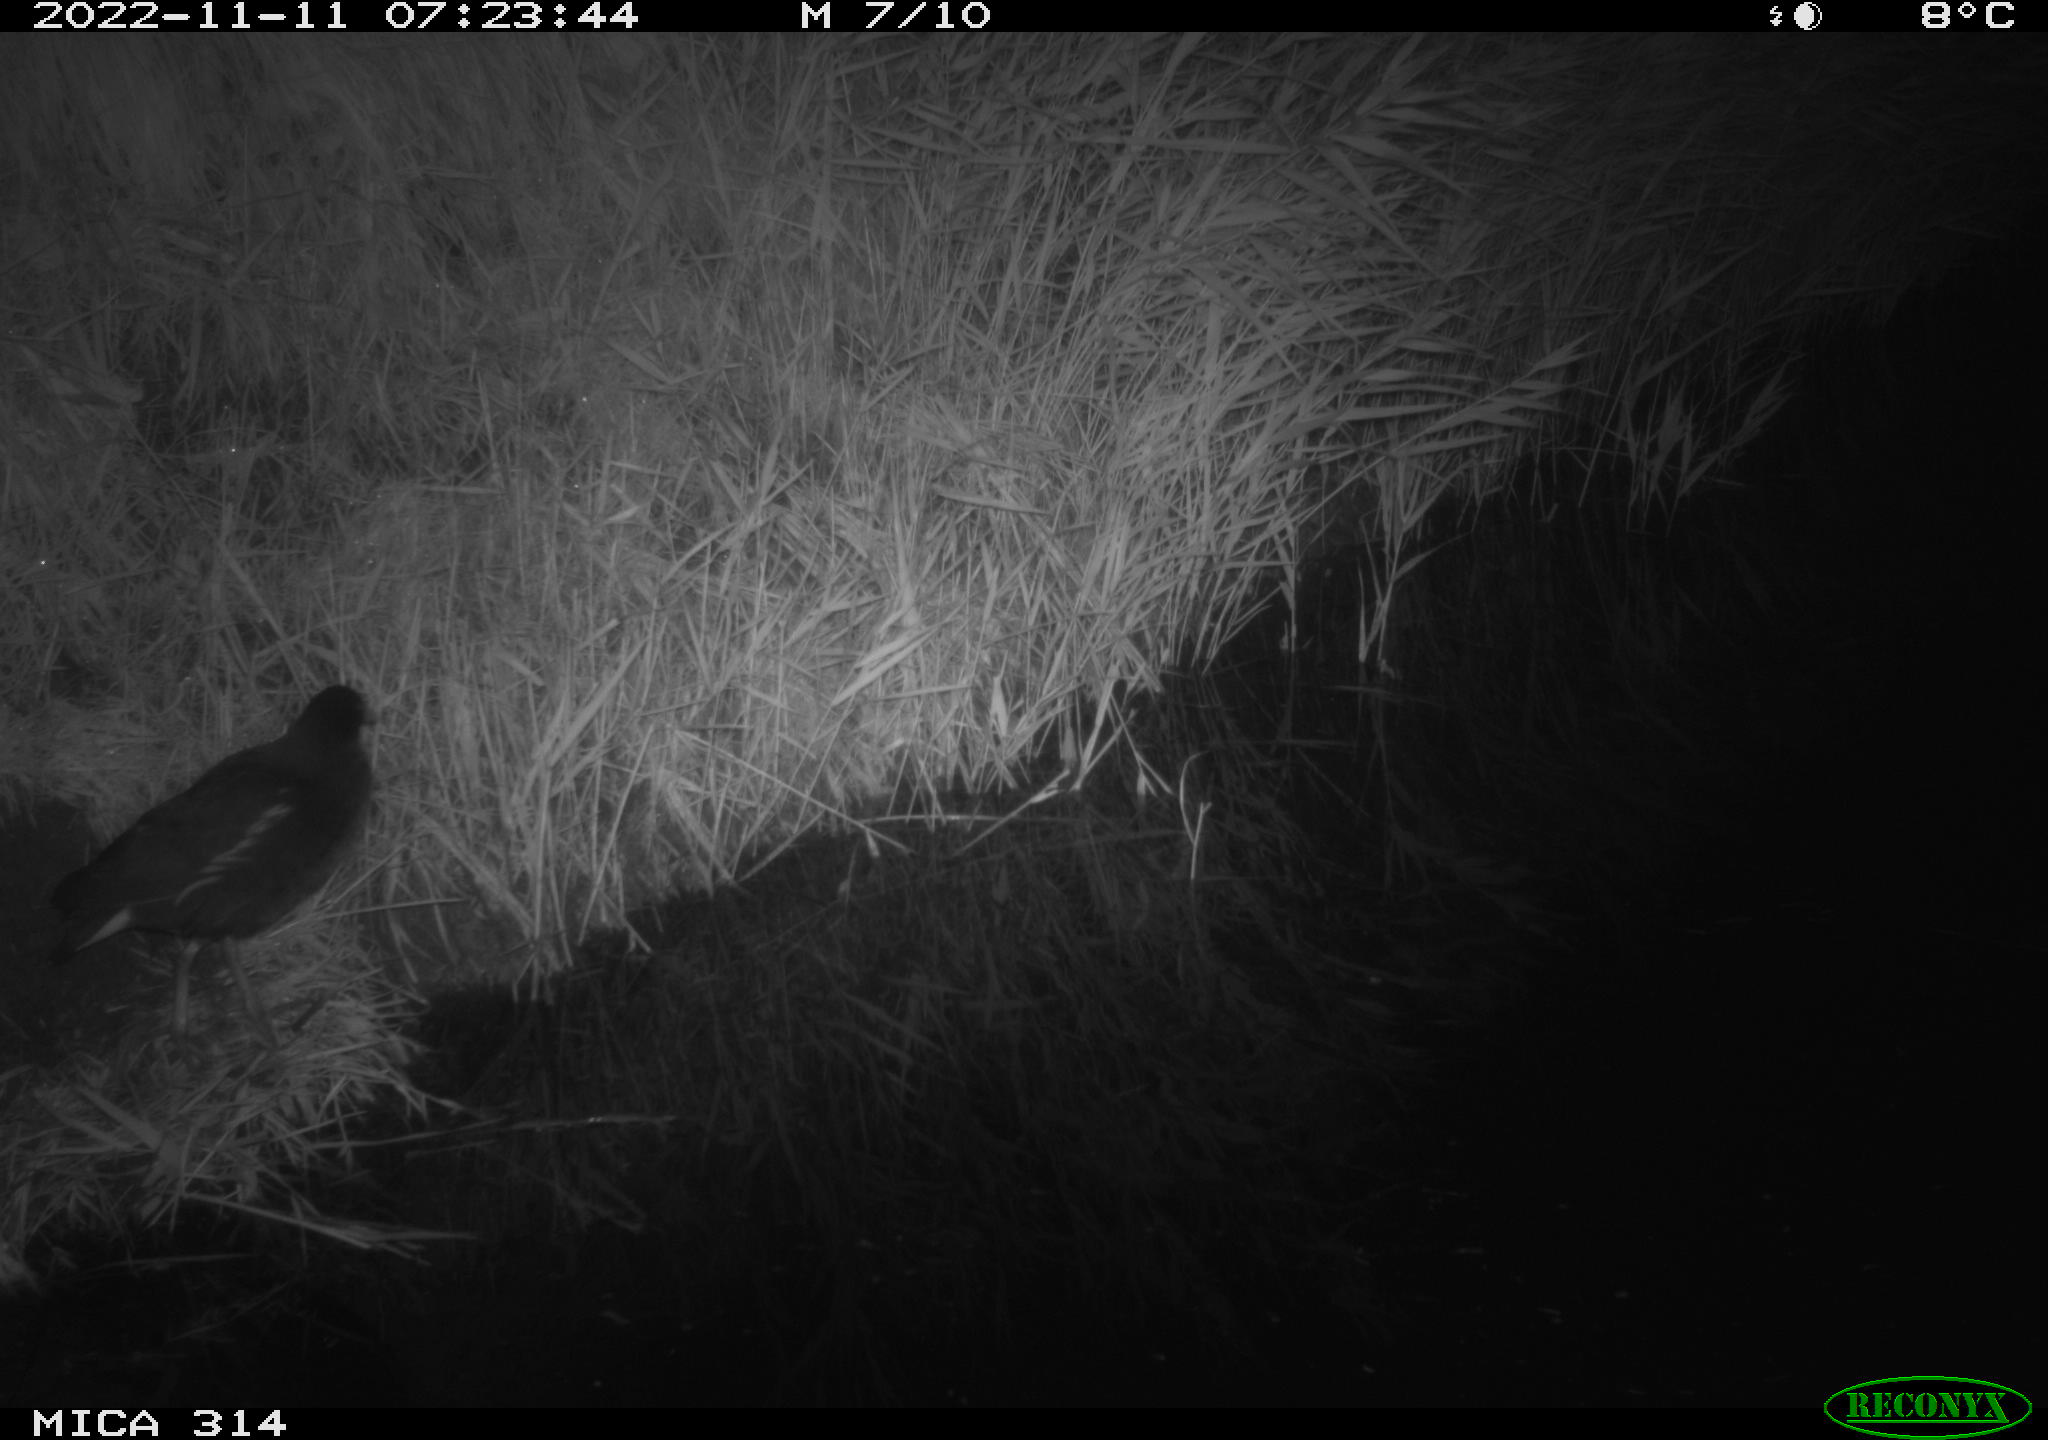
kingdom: Animalia
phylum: Chordata
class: Aves
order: Gruiformes
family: Rallidae
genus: Gallinula
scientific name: Gallinula chloropus
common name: Common moorhen
